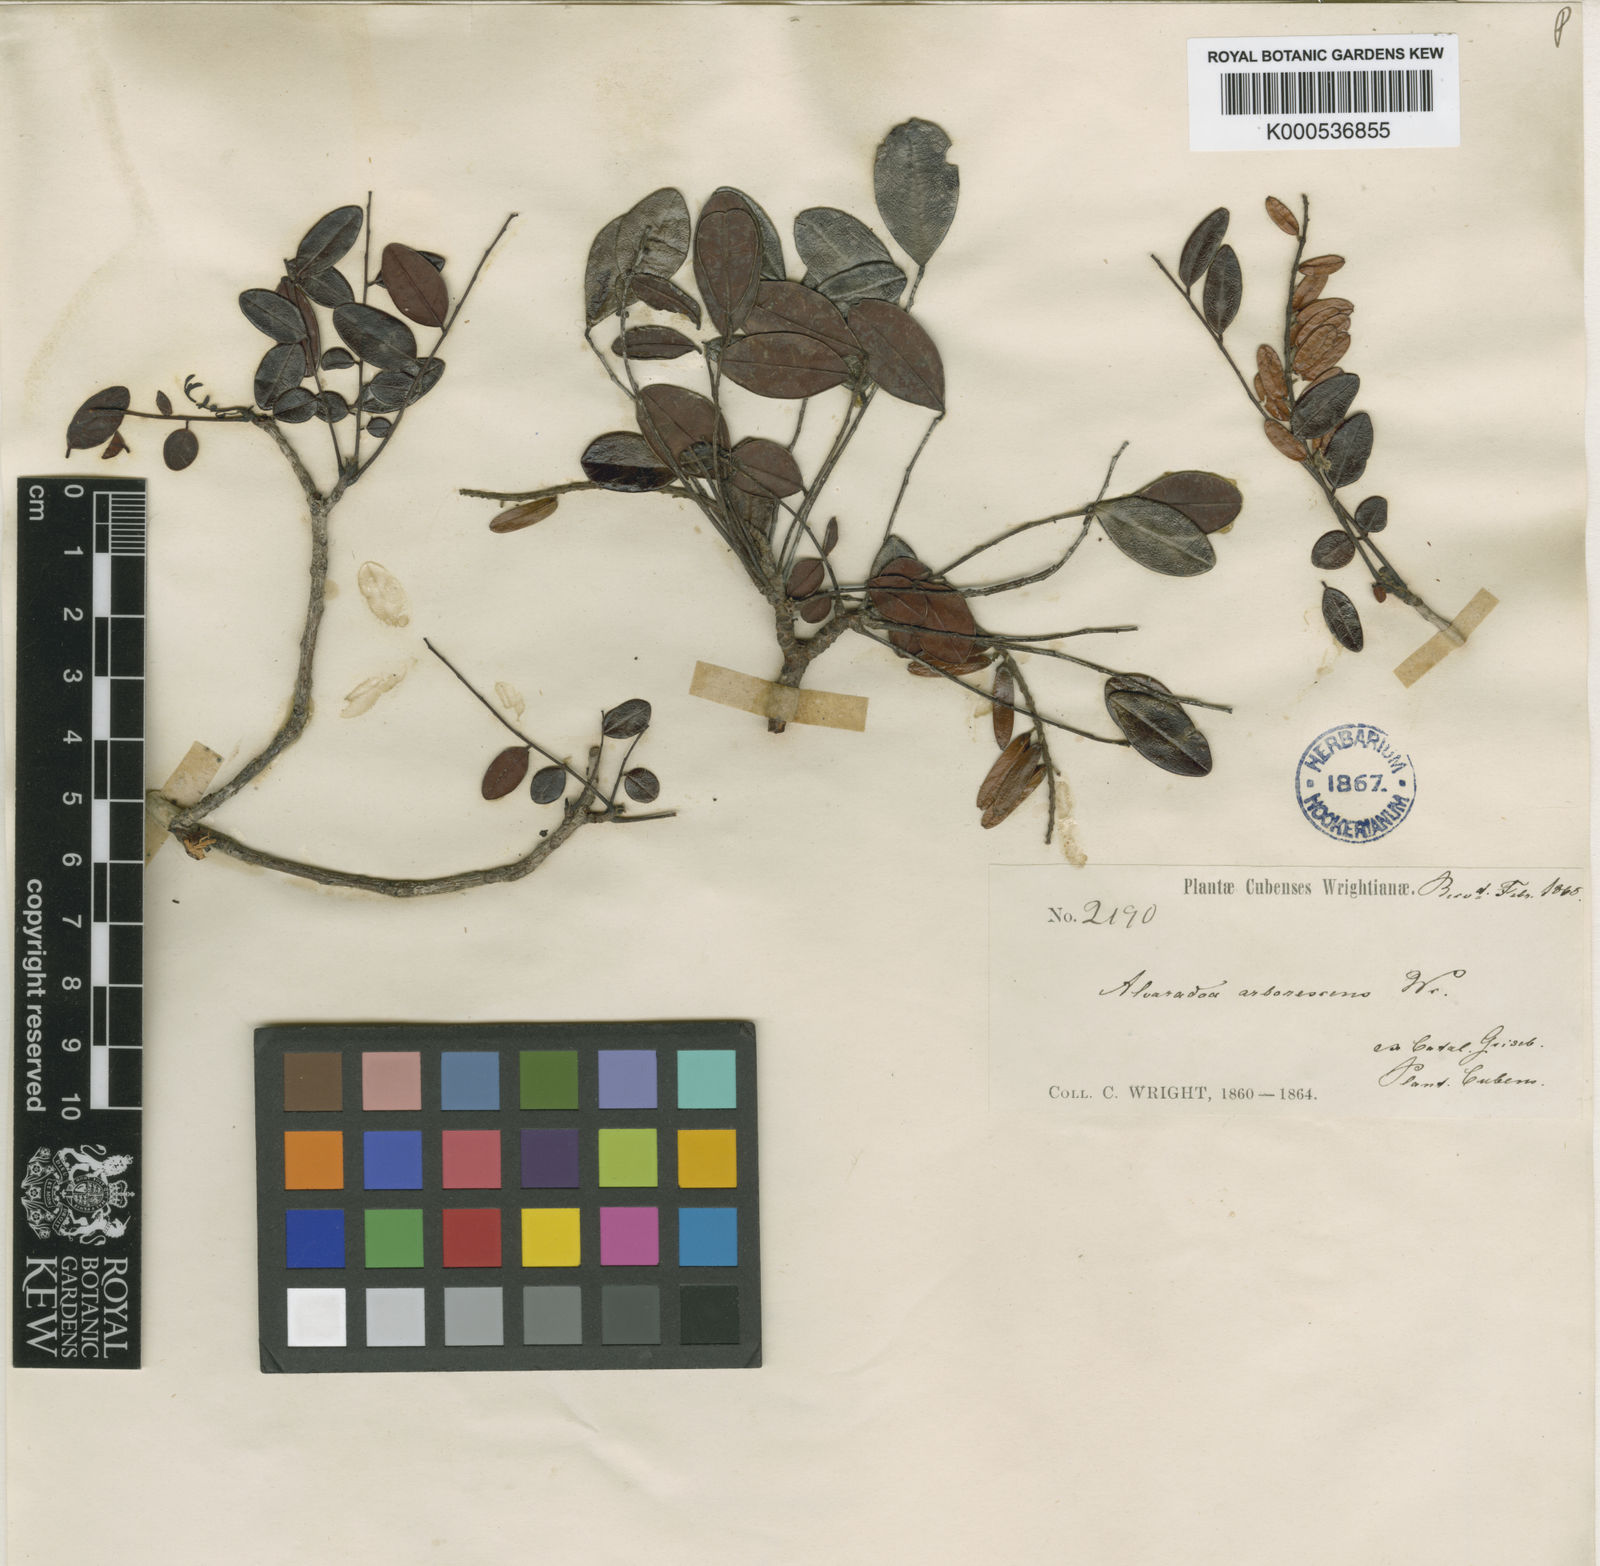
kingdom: Plantae
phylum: Tracheophyta
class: Magnoliopsida
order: Picramniales
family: Picramniaceae
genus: Alvaradoa
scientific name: Alvaradoa
